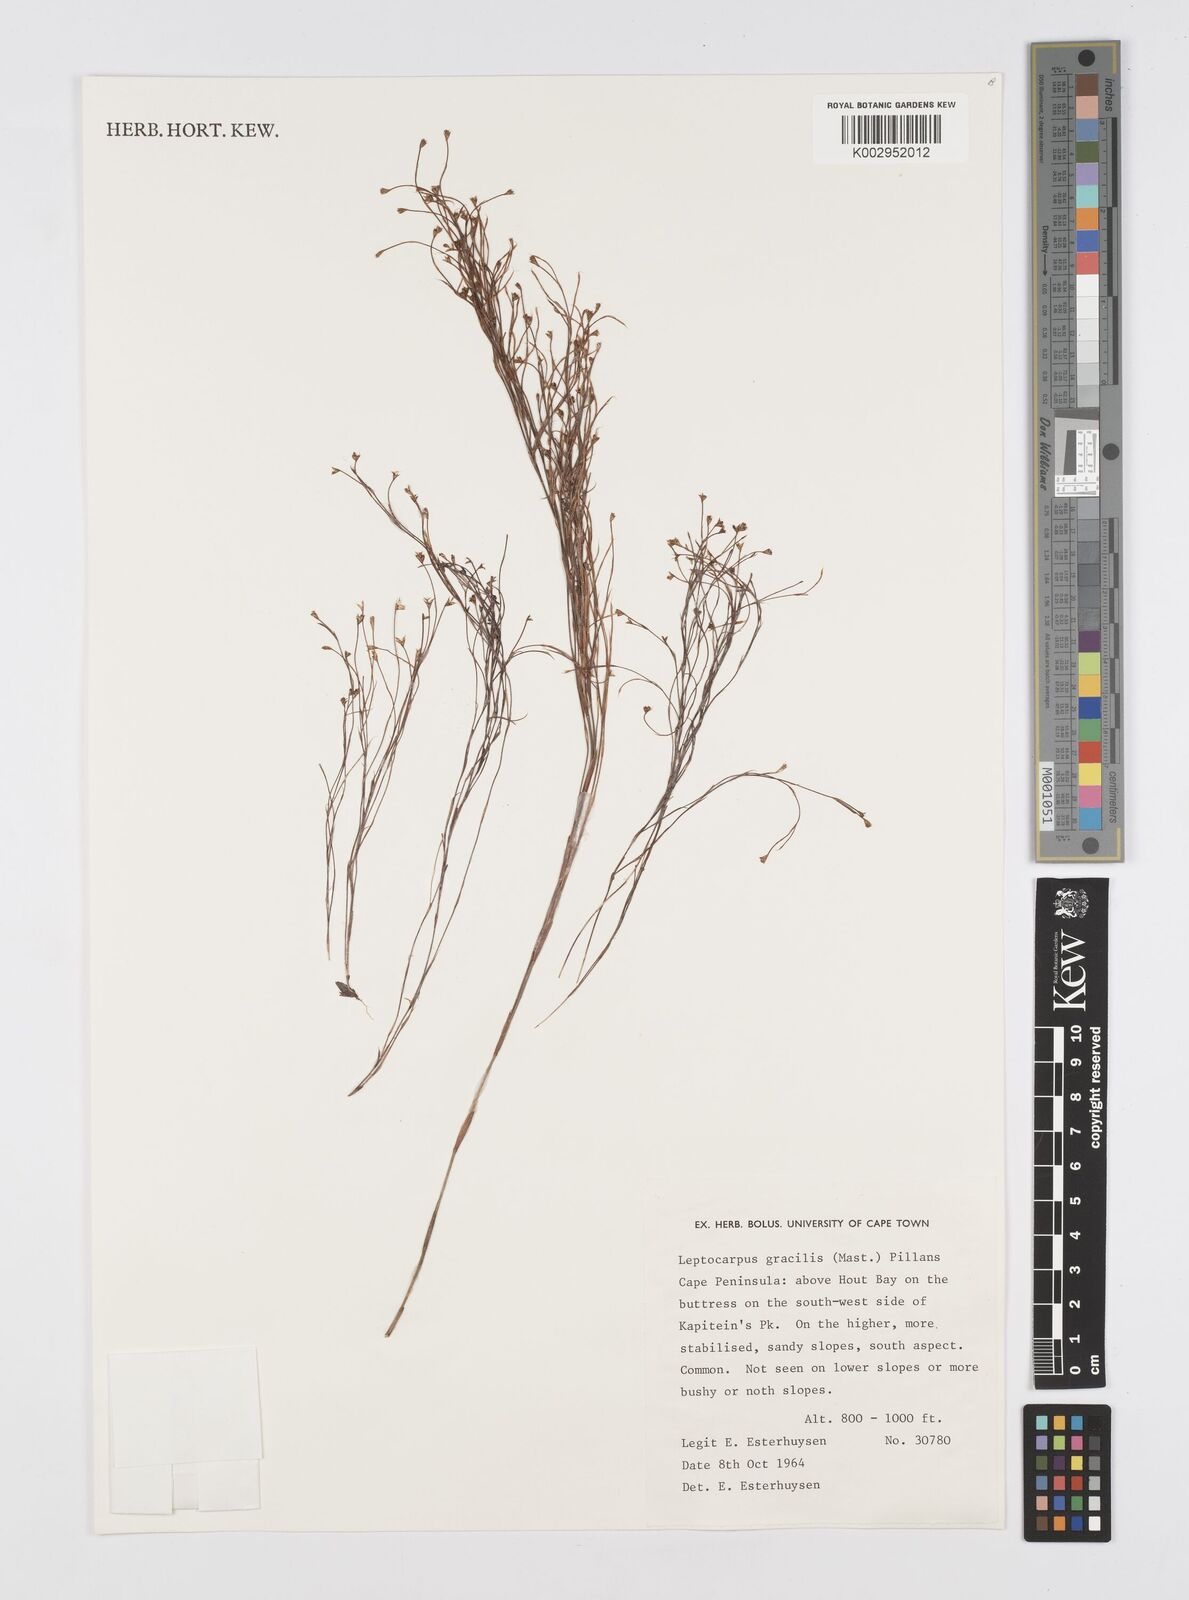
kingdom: Plantae
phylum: Tracheophyta
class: Liliopsida
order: Poales
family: Restionaceae
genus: Baloskion
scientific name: Baloskion gracile
